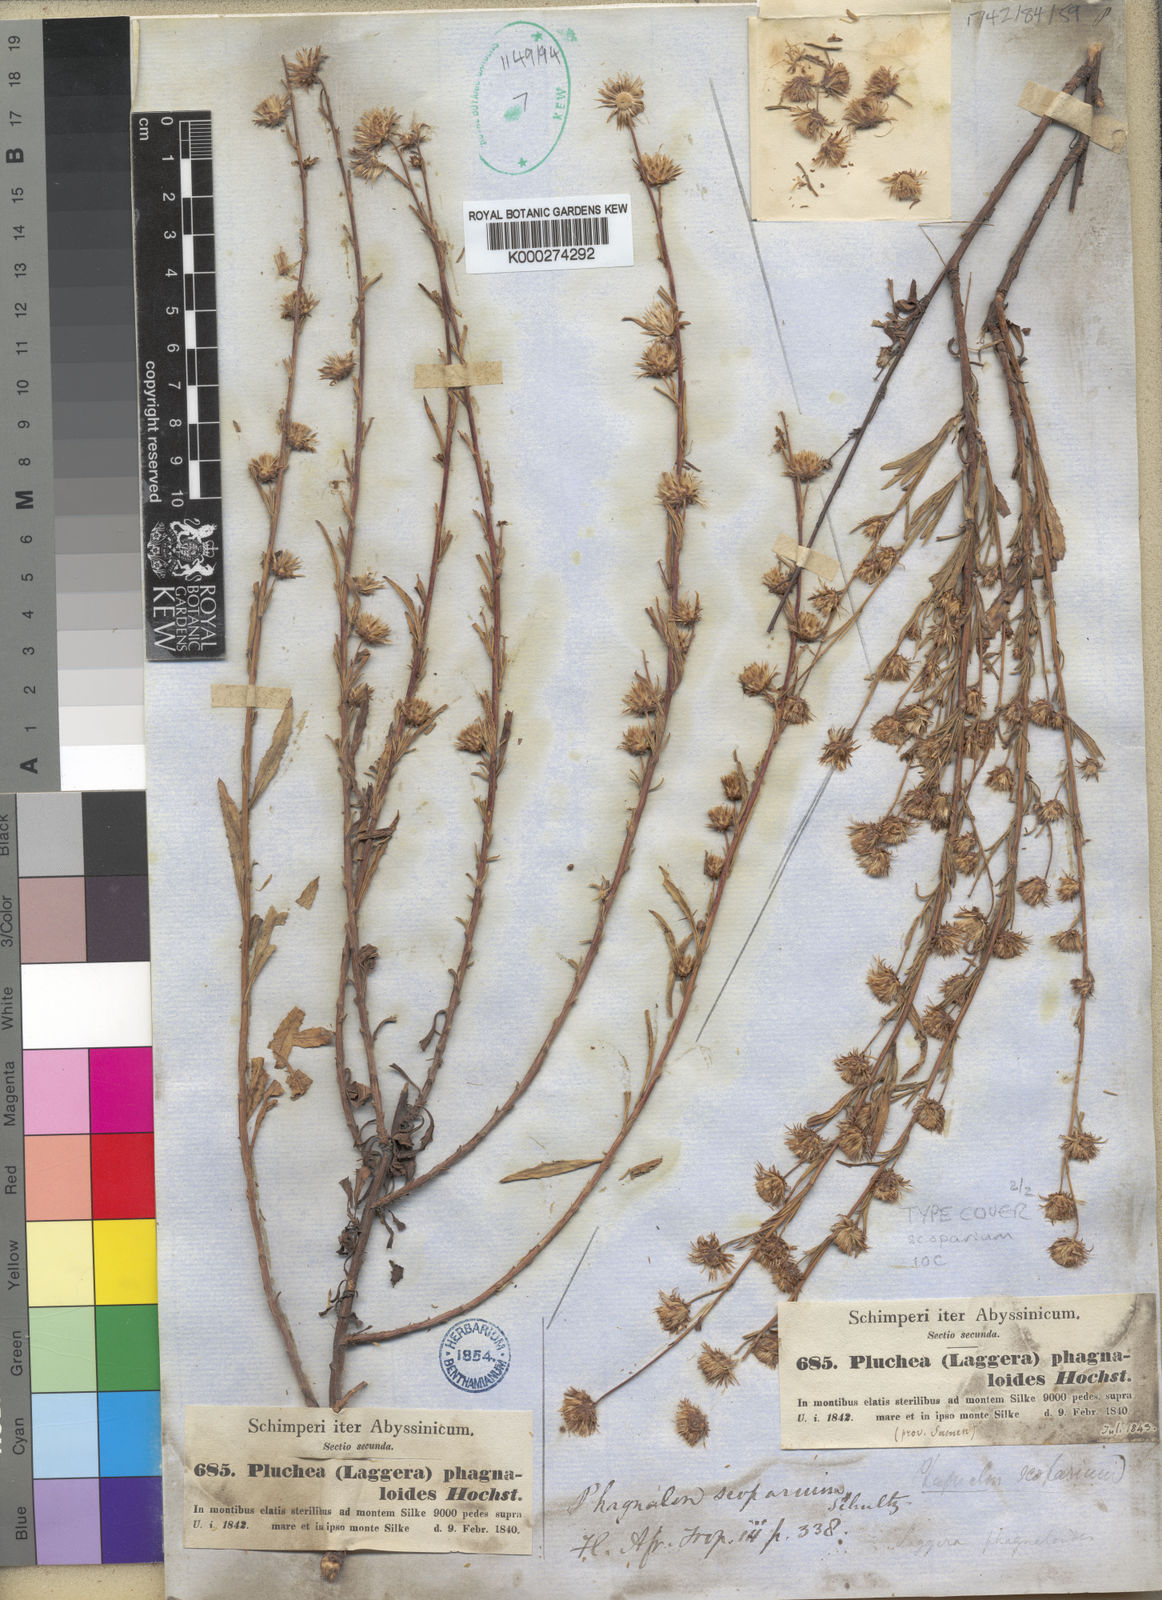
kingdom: Plantae
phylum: Tracheophyta
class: Magnoliopsida
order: Asterales
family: Asteraceae
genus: Phagnalon
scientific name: Phagnalon
